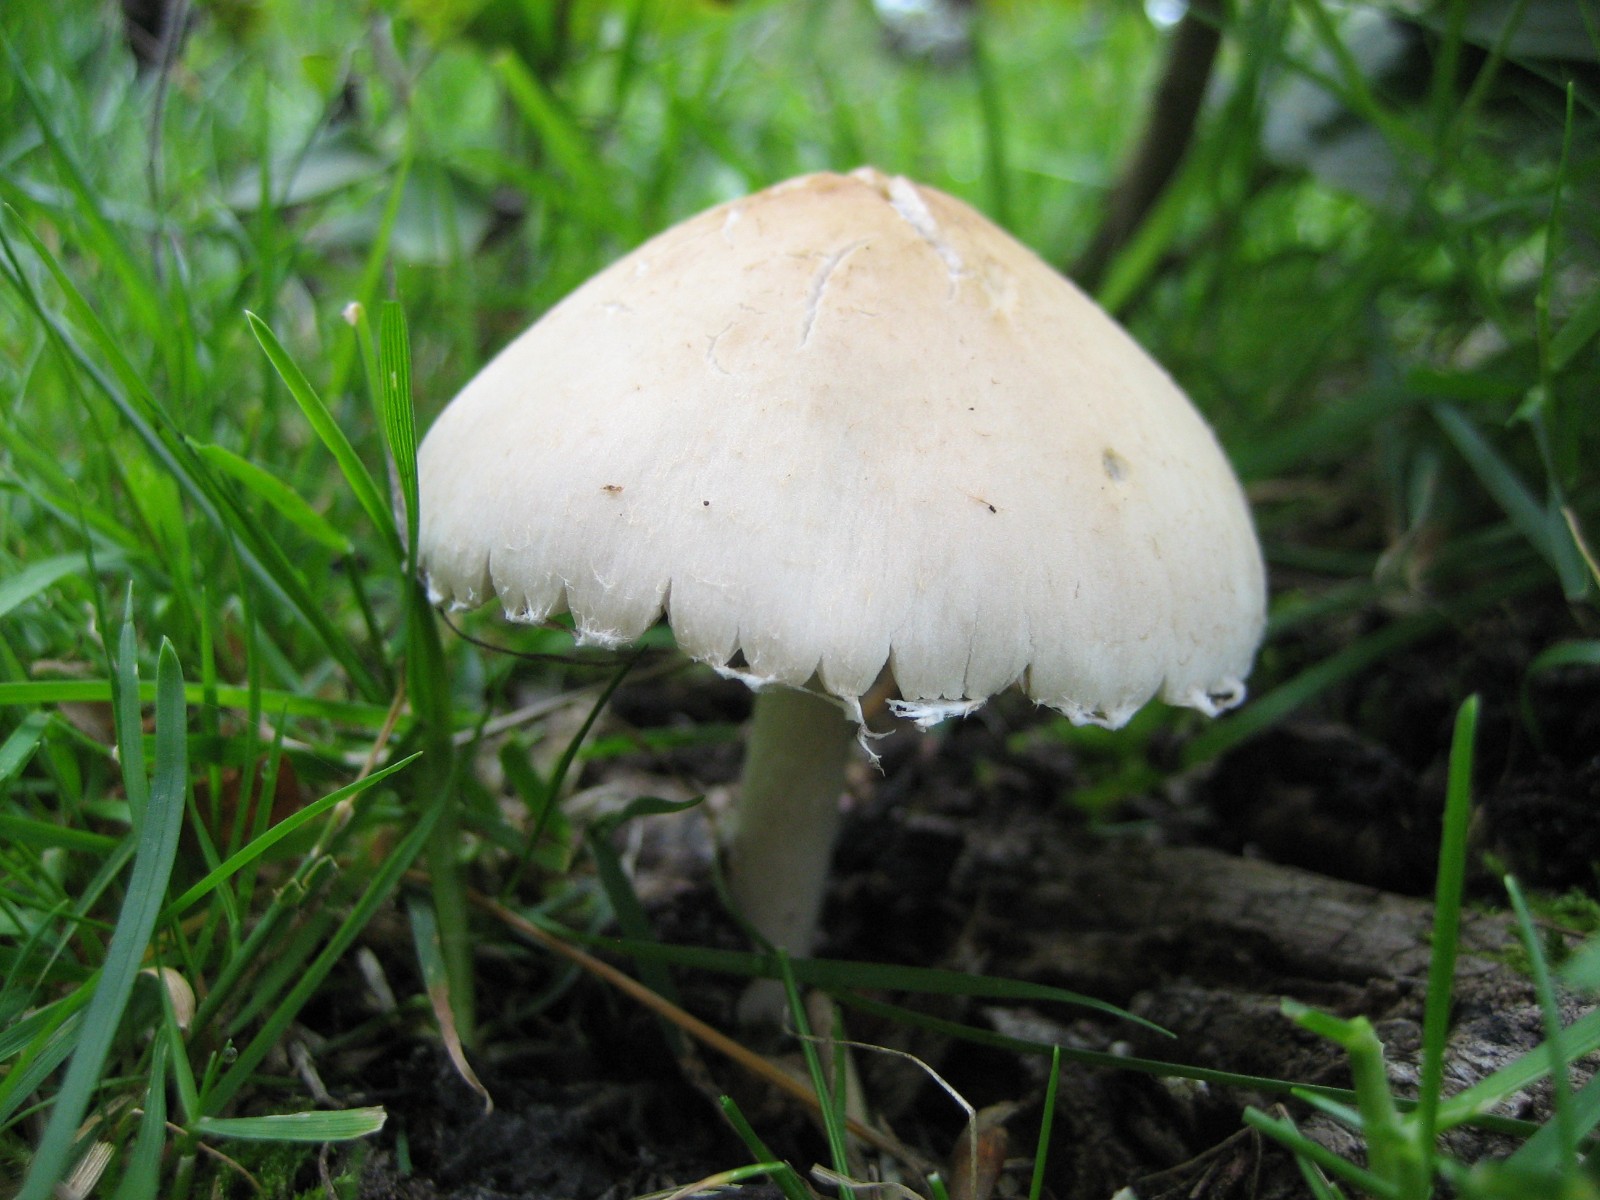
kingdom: Fungi
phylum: Basidiomycota
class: Agaricomycetes
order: Agaricales
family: Psathyrellaceae
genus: Candolleomyces
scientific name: Candolleomyces candolleanus
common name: Candolles mørkhat
